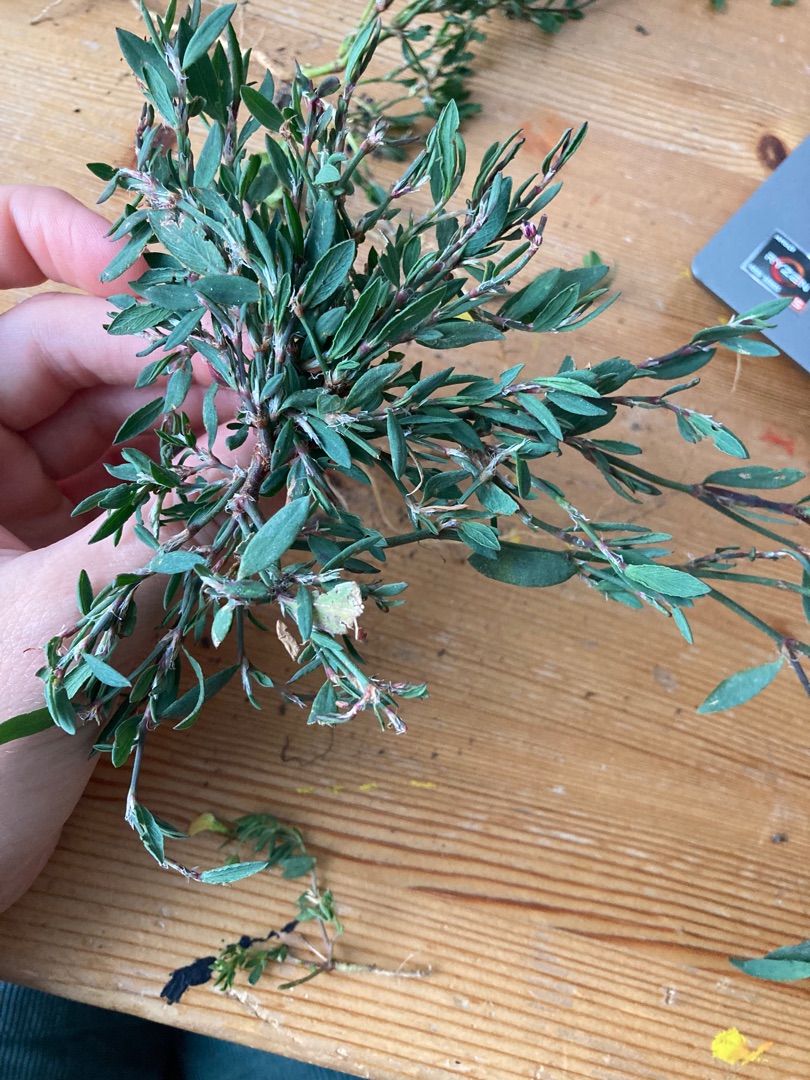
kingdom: Plantae
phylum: Tracheophyta
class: Magnoliopsida
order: Caryophyllales
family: Polygonaceae
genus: Polygonum
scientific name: Polygonum aviculare
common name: Vej-pileurt
